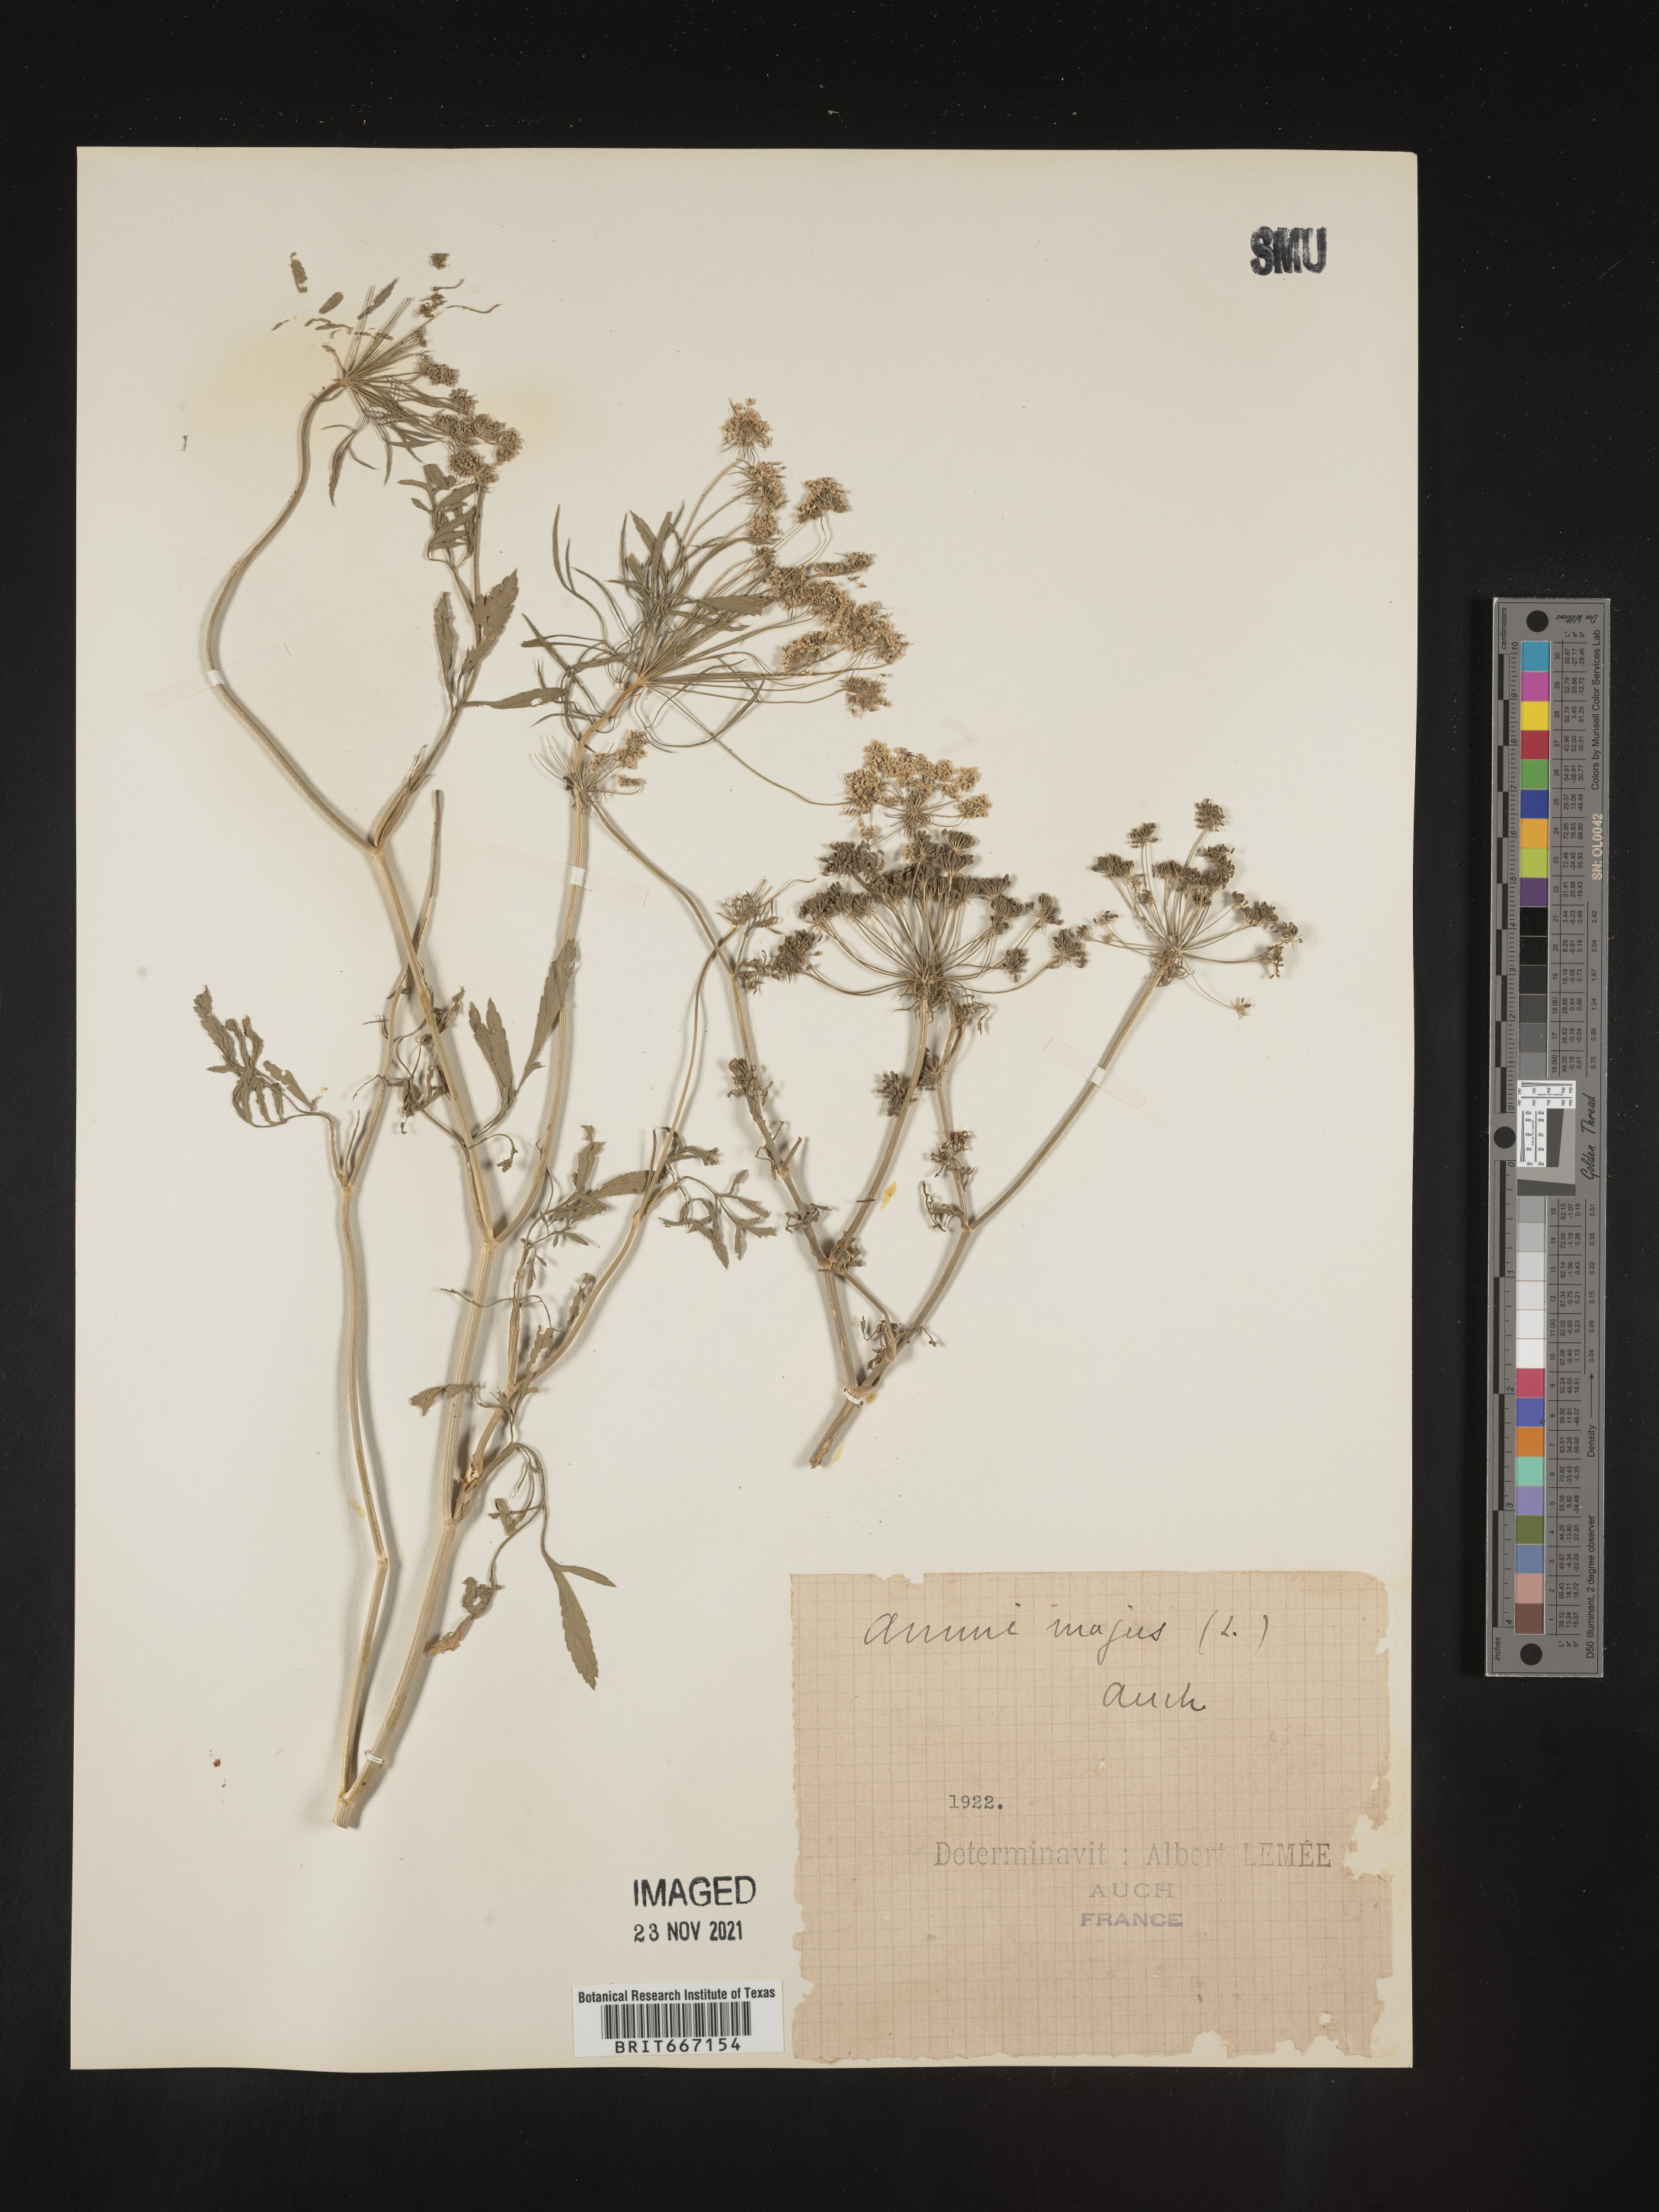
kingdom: Plantae
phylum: Tracheophyta
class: Magnoliopsida
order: Apiales
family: Apiaceae
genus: Ammi
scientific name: Ammi
